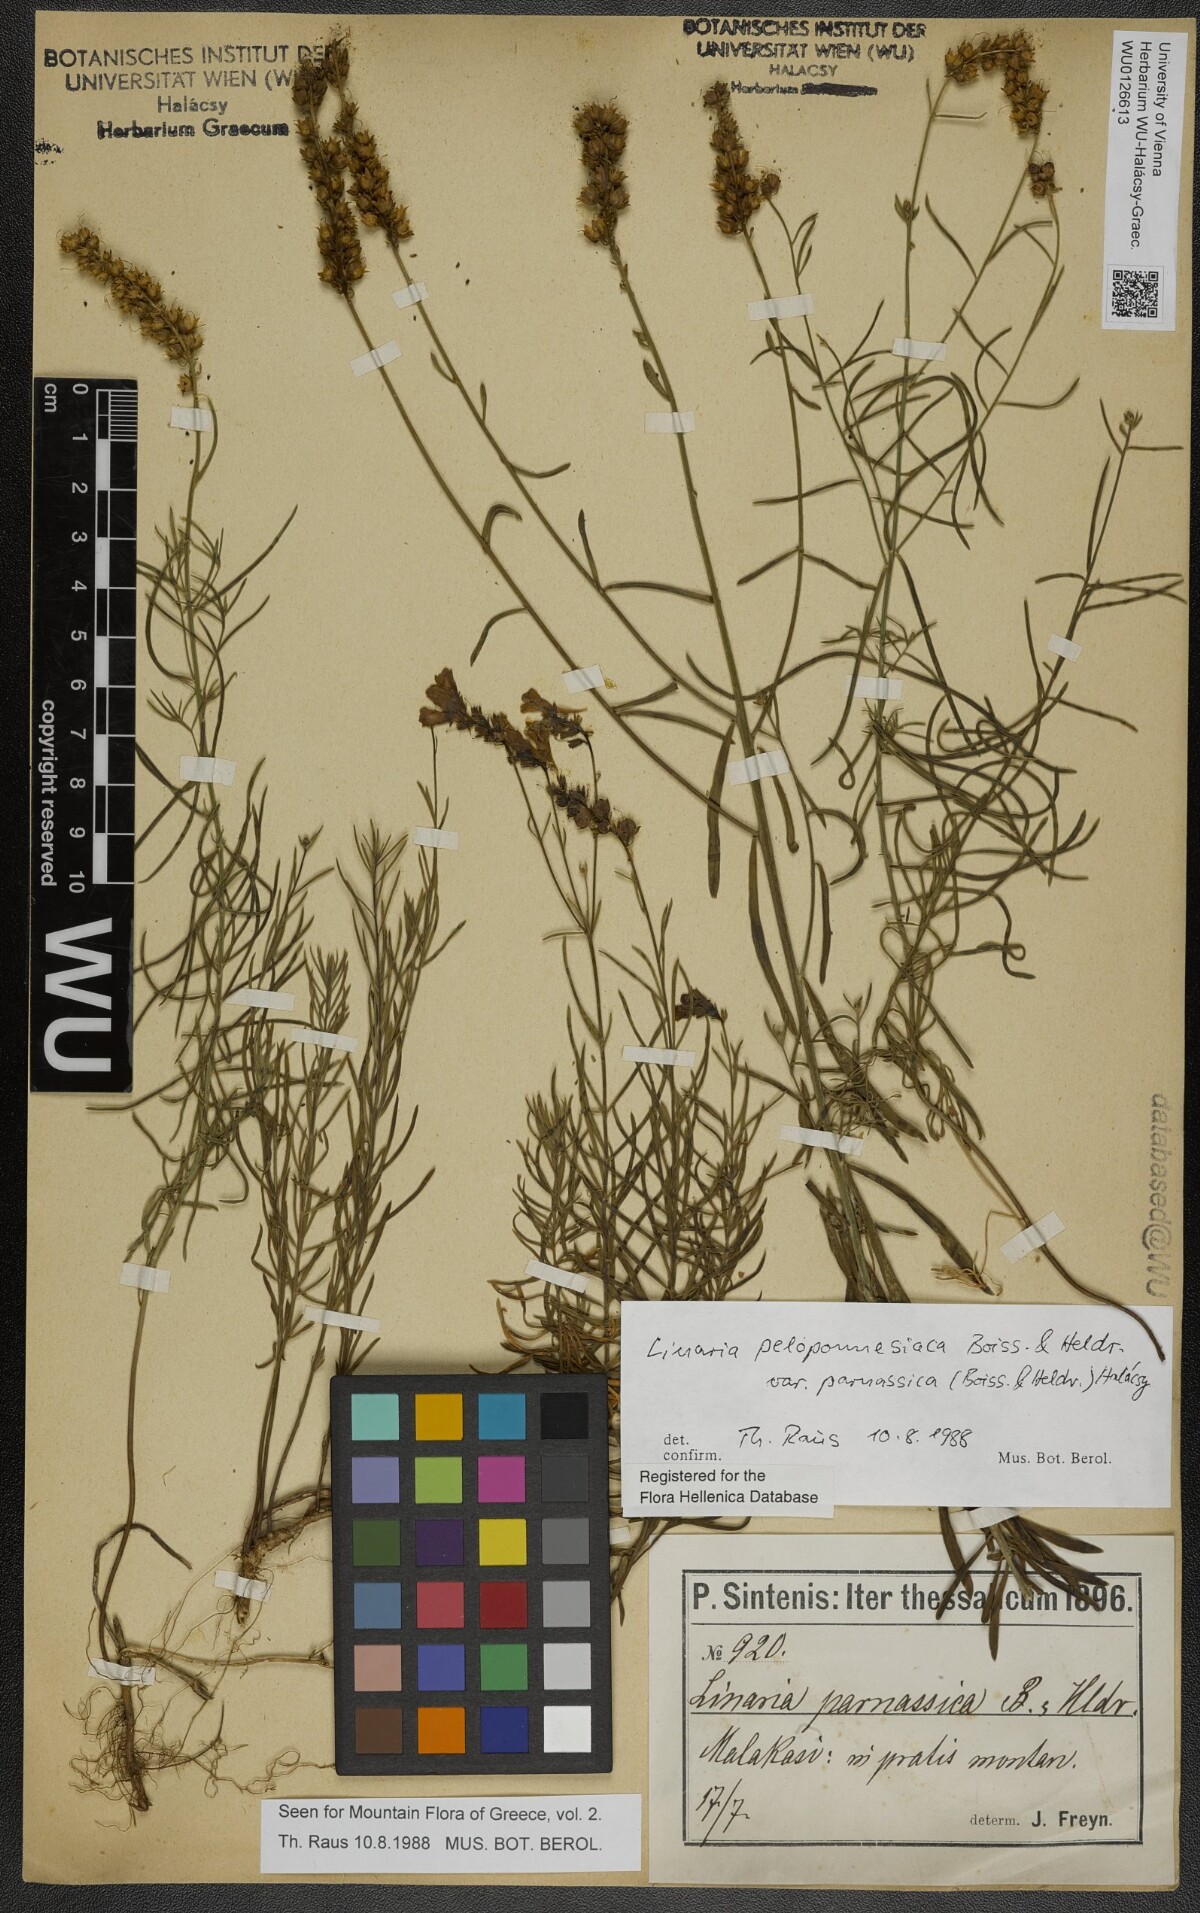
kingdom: Plantae
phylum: Tracheophyta
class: Magnoliopsida
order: Lamiales
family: Plantaginaceae
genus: Linaria
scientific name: Linaria peloponnesiaca
